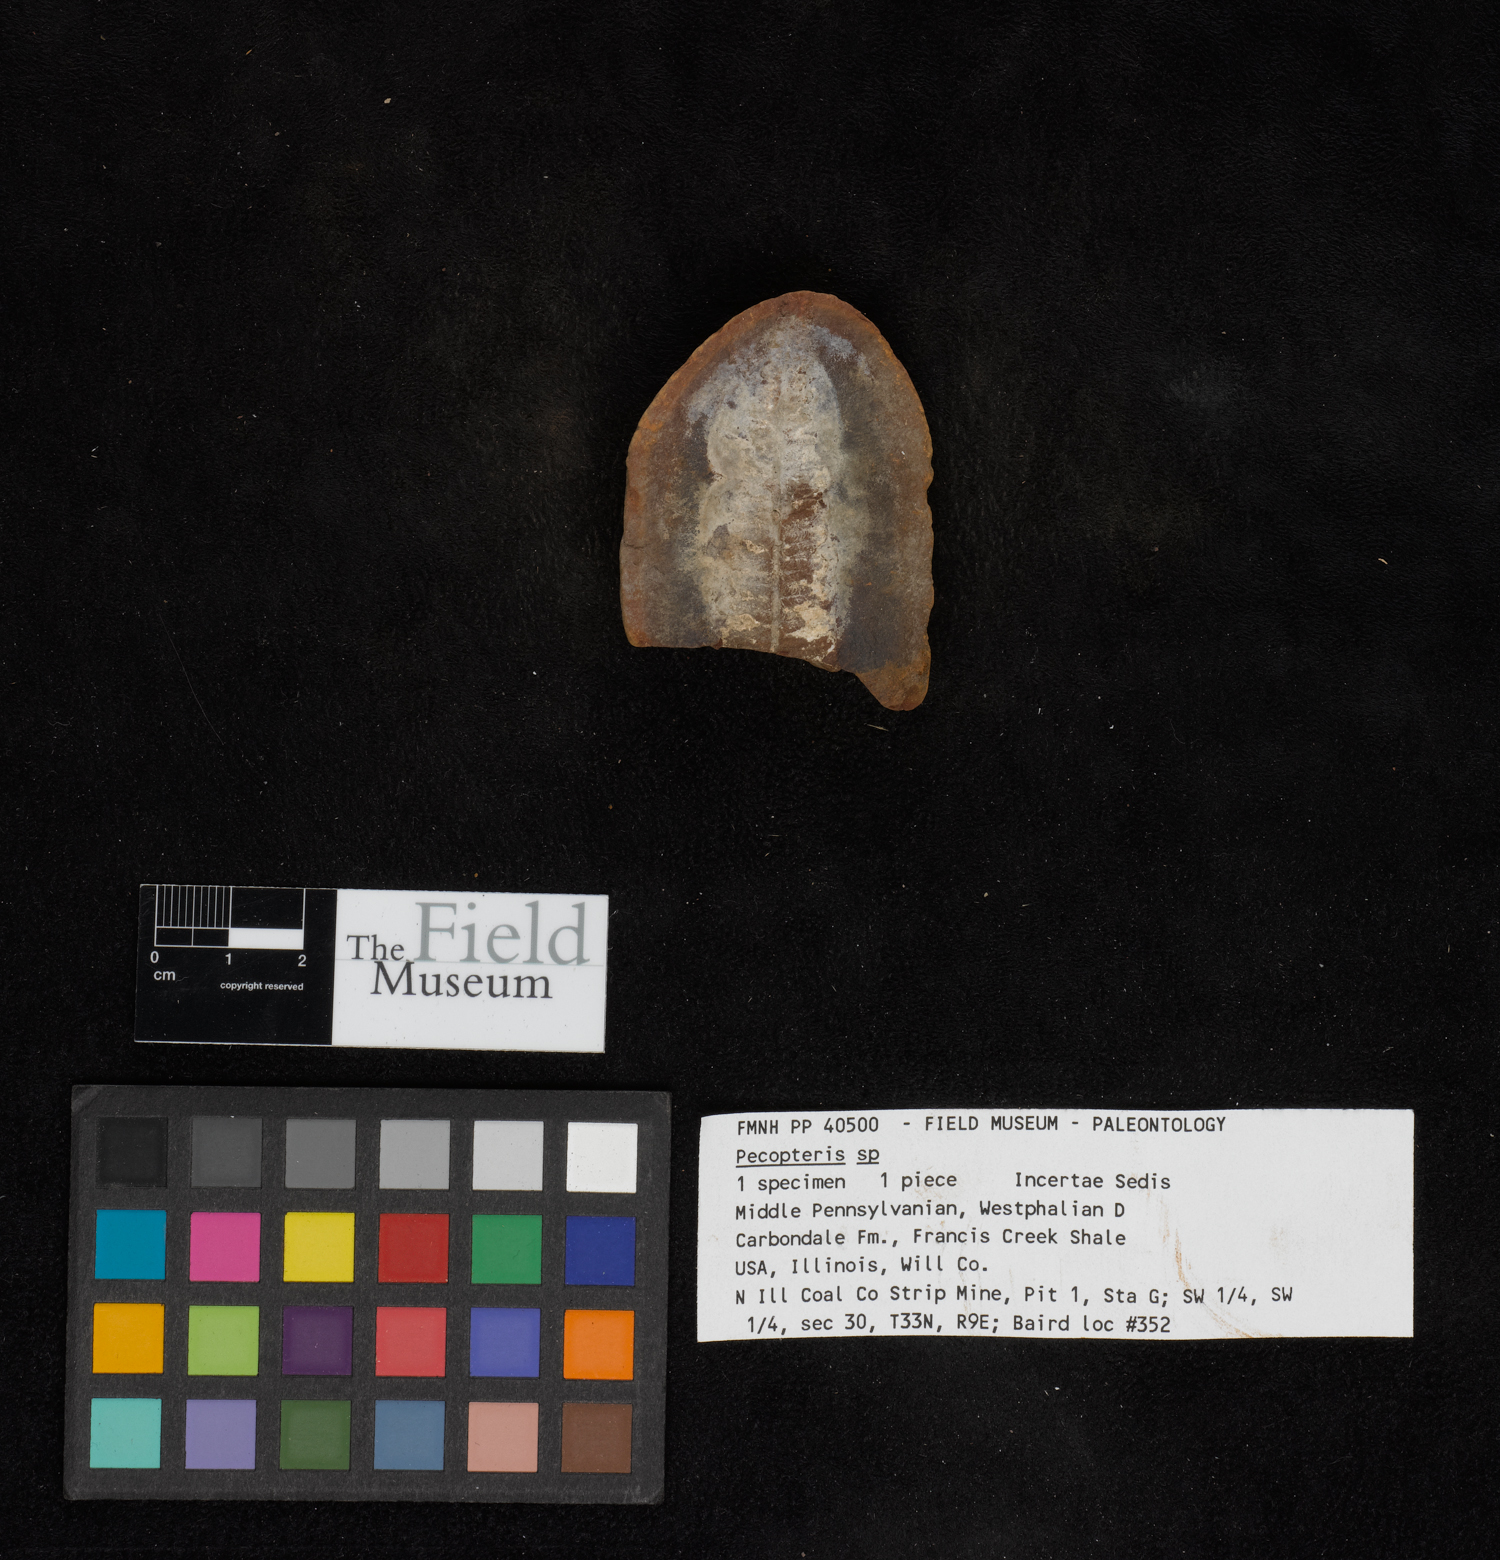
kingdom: Plantae
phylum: Tracheophyta
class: Polypodiopsida
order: Marattiales
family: Asterothecaceae
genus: Pecopteris
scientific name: Pecopteris
